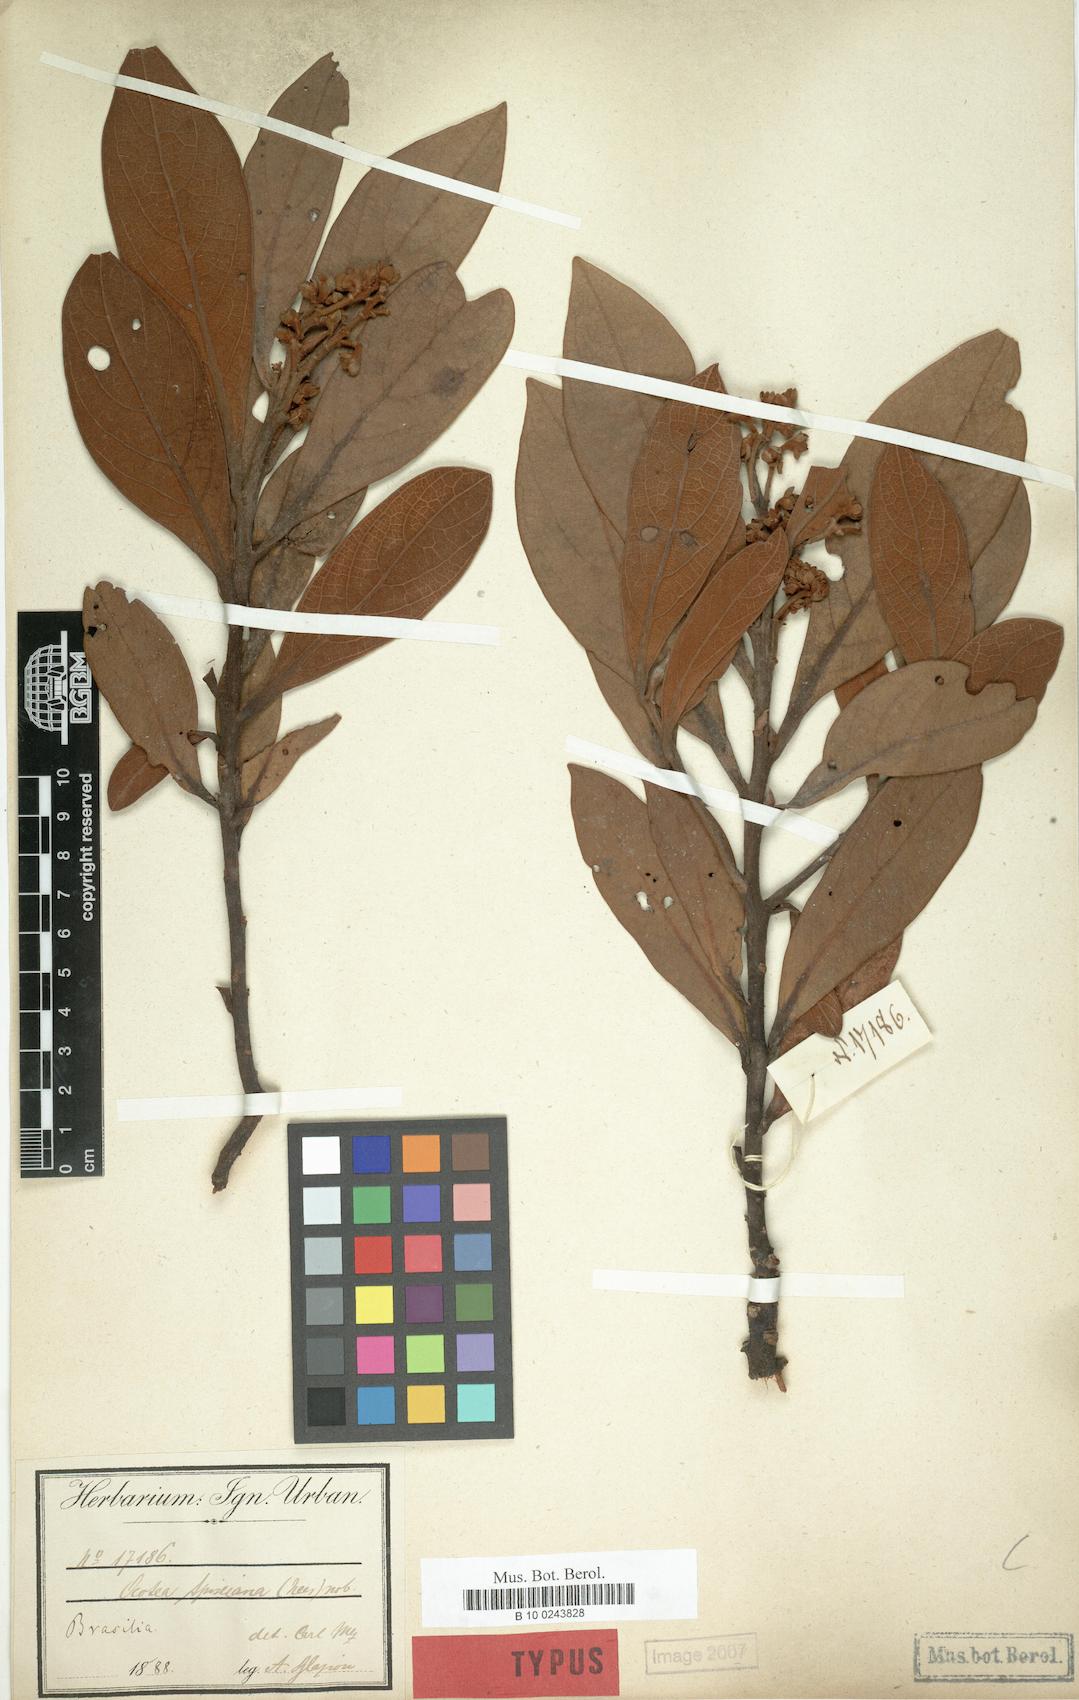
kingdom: Plantae
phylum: Tracheophyta
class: Magnoliopsida
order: Laurales
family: Lauraceae
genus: Ocotea
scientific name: Ocotea spixiana
